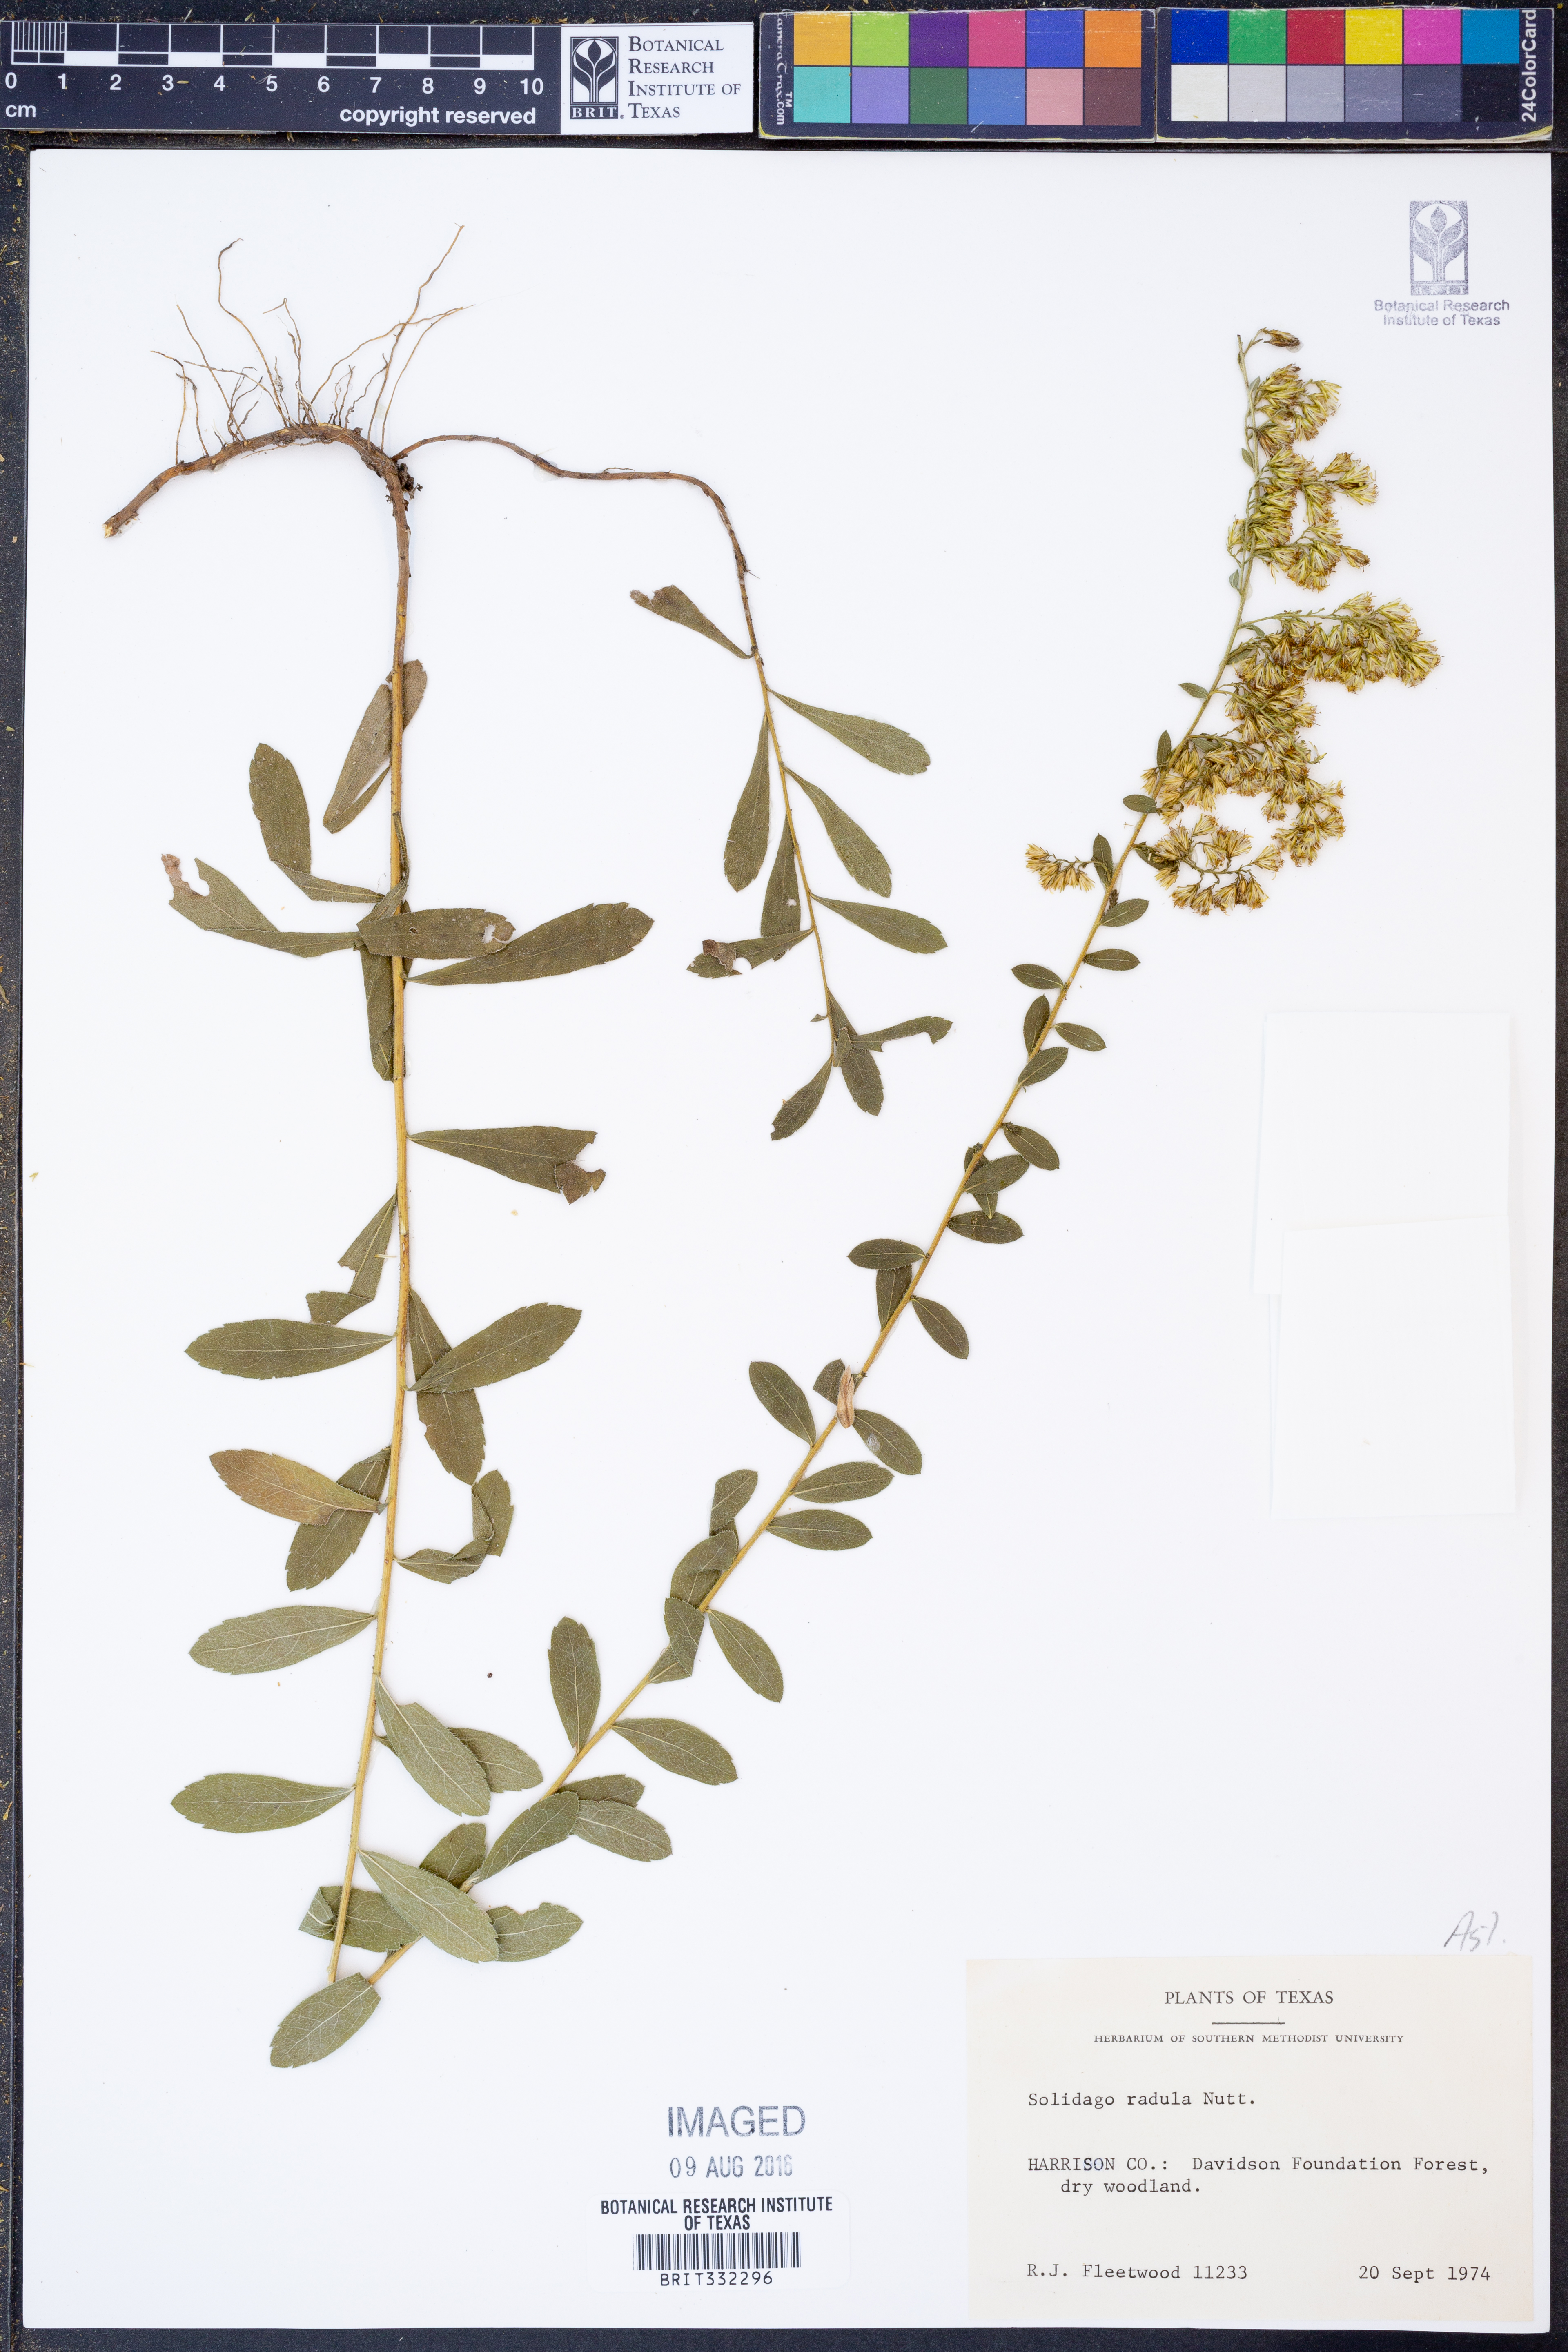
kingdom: Plantae
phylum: Tracheophyta
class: Magnoliopsida
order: Asterales
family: Asteraceae
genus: Solidago
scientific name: Solidago radula
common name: Western rough goldenrod
